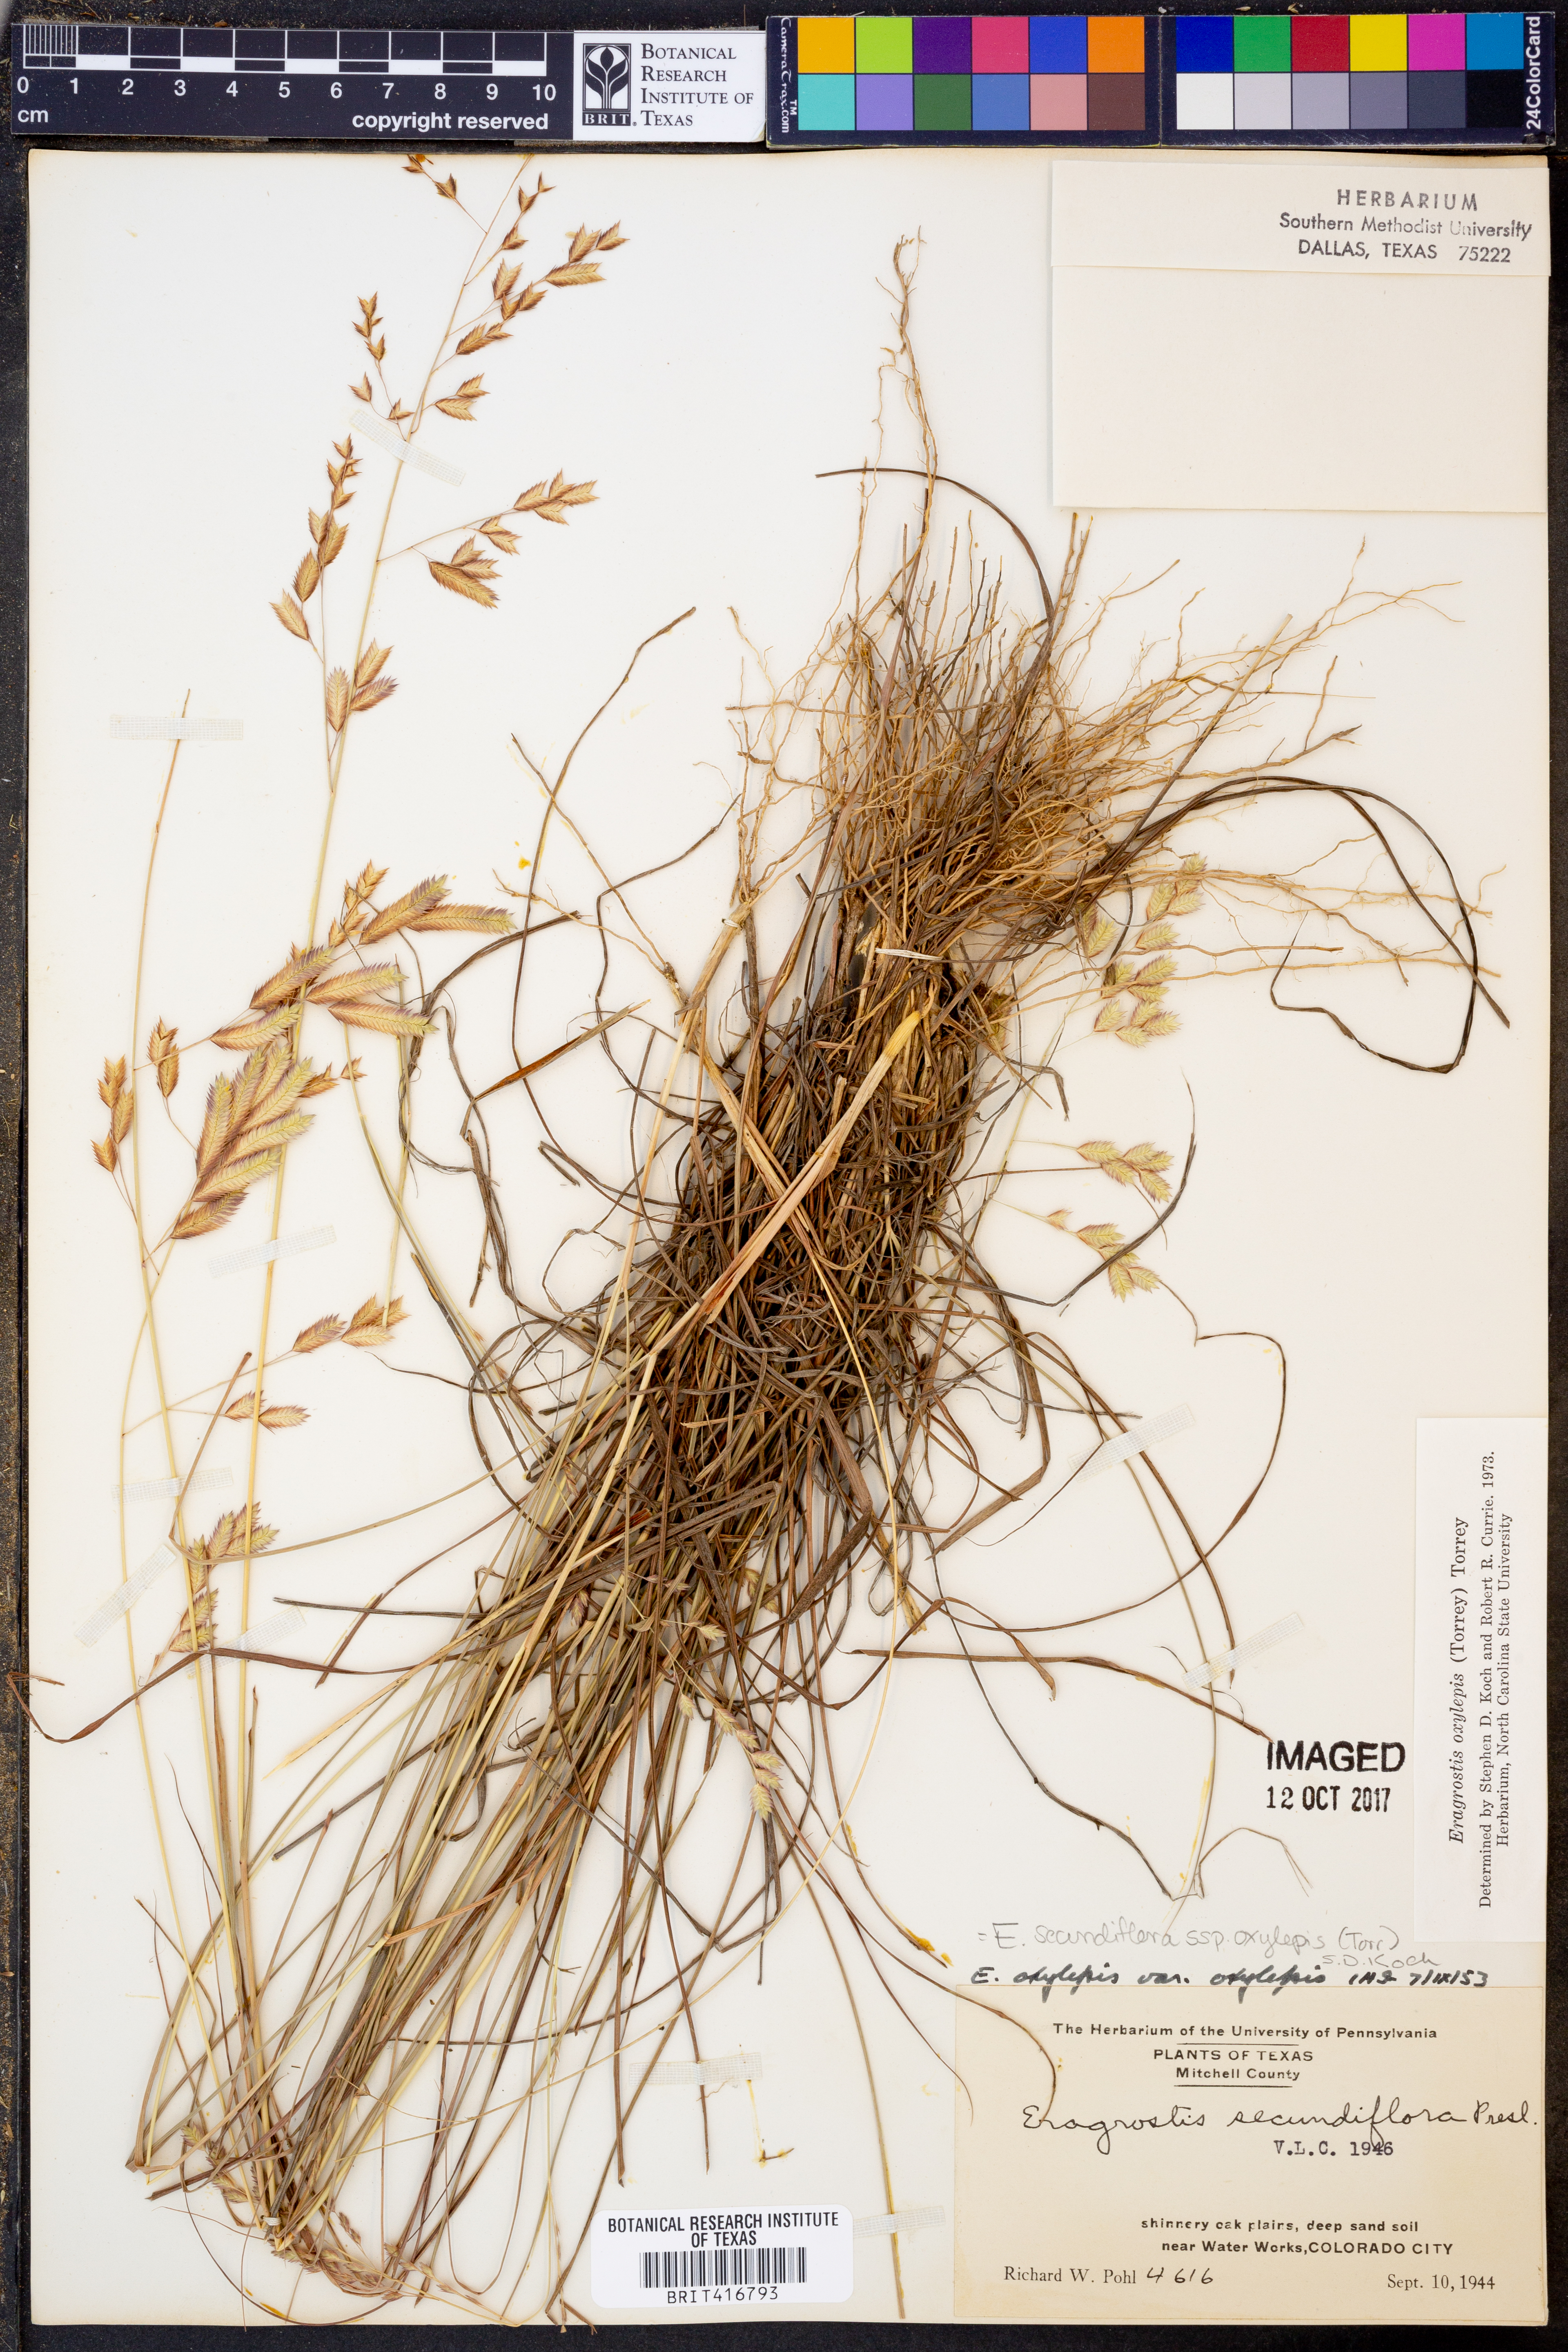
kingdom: Plantae
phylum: Tracheophyta
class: Liliopsida
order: Poales
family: Poaceae
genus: Eragrostis
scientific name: Eragrostis secundiflora
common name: Red love grass
